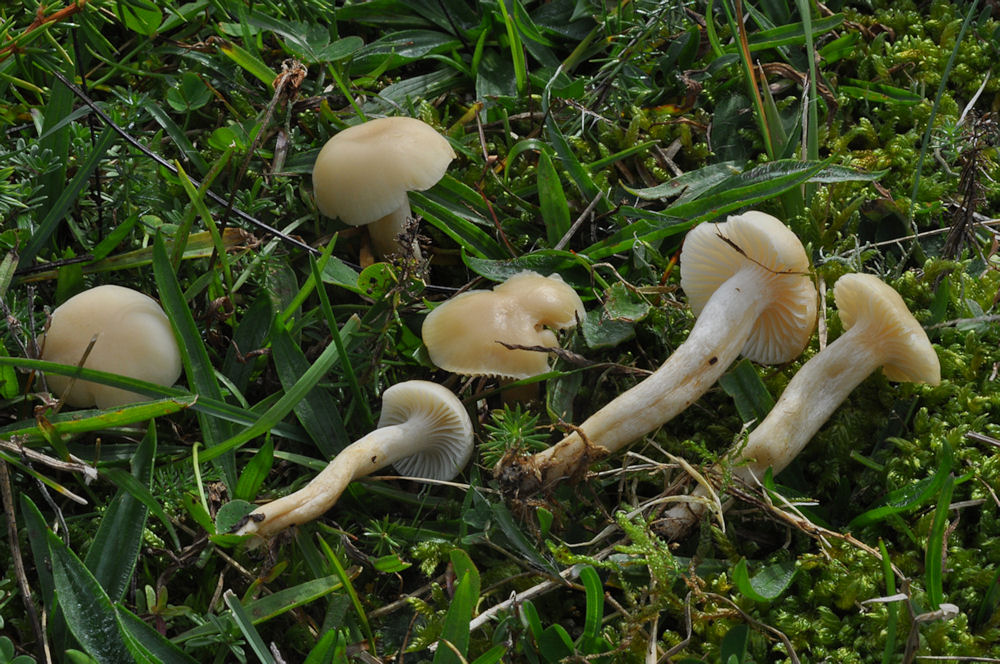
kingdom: Fungi
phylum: Basidiomycota
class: Agaricomycetes
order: Agaricales
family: Hygrophoraceae
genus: Cuphophyllus
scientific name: Cuphophyllus russocoriaceus
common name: ruslæder-vokshat
